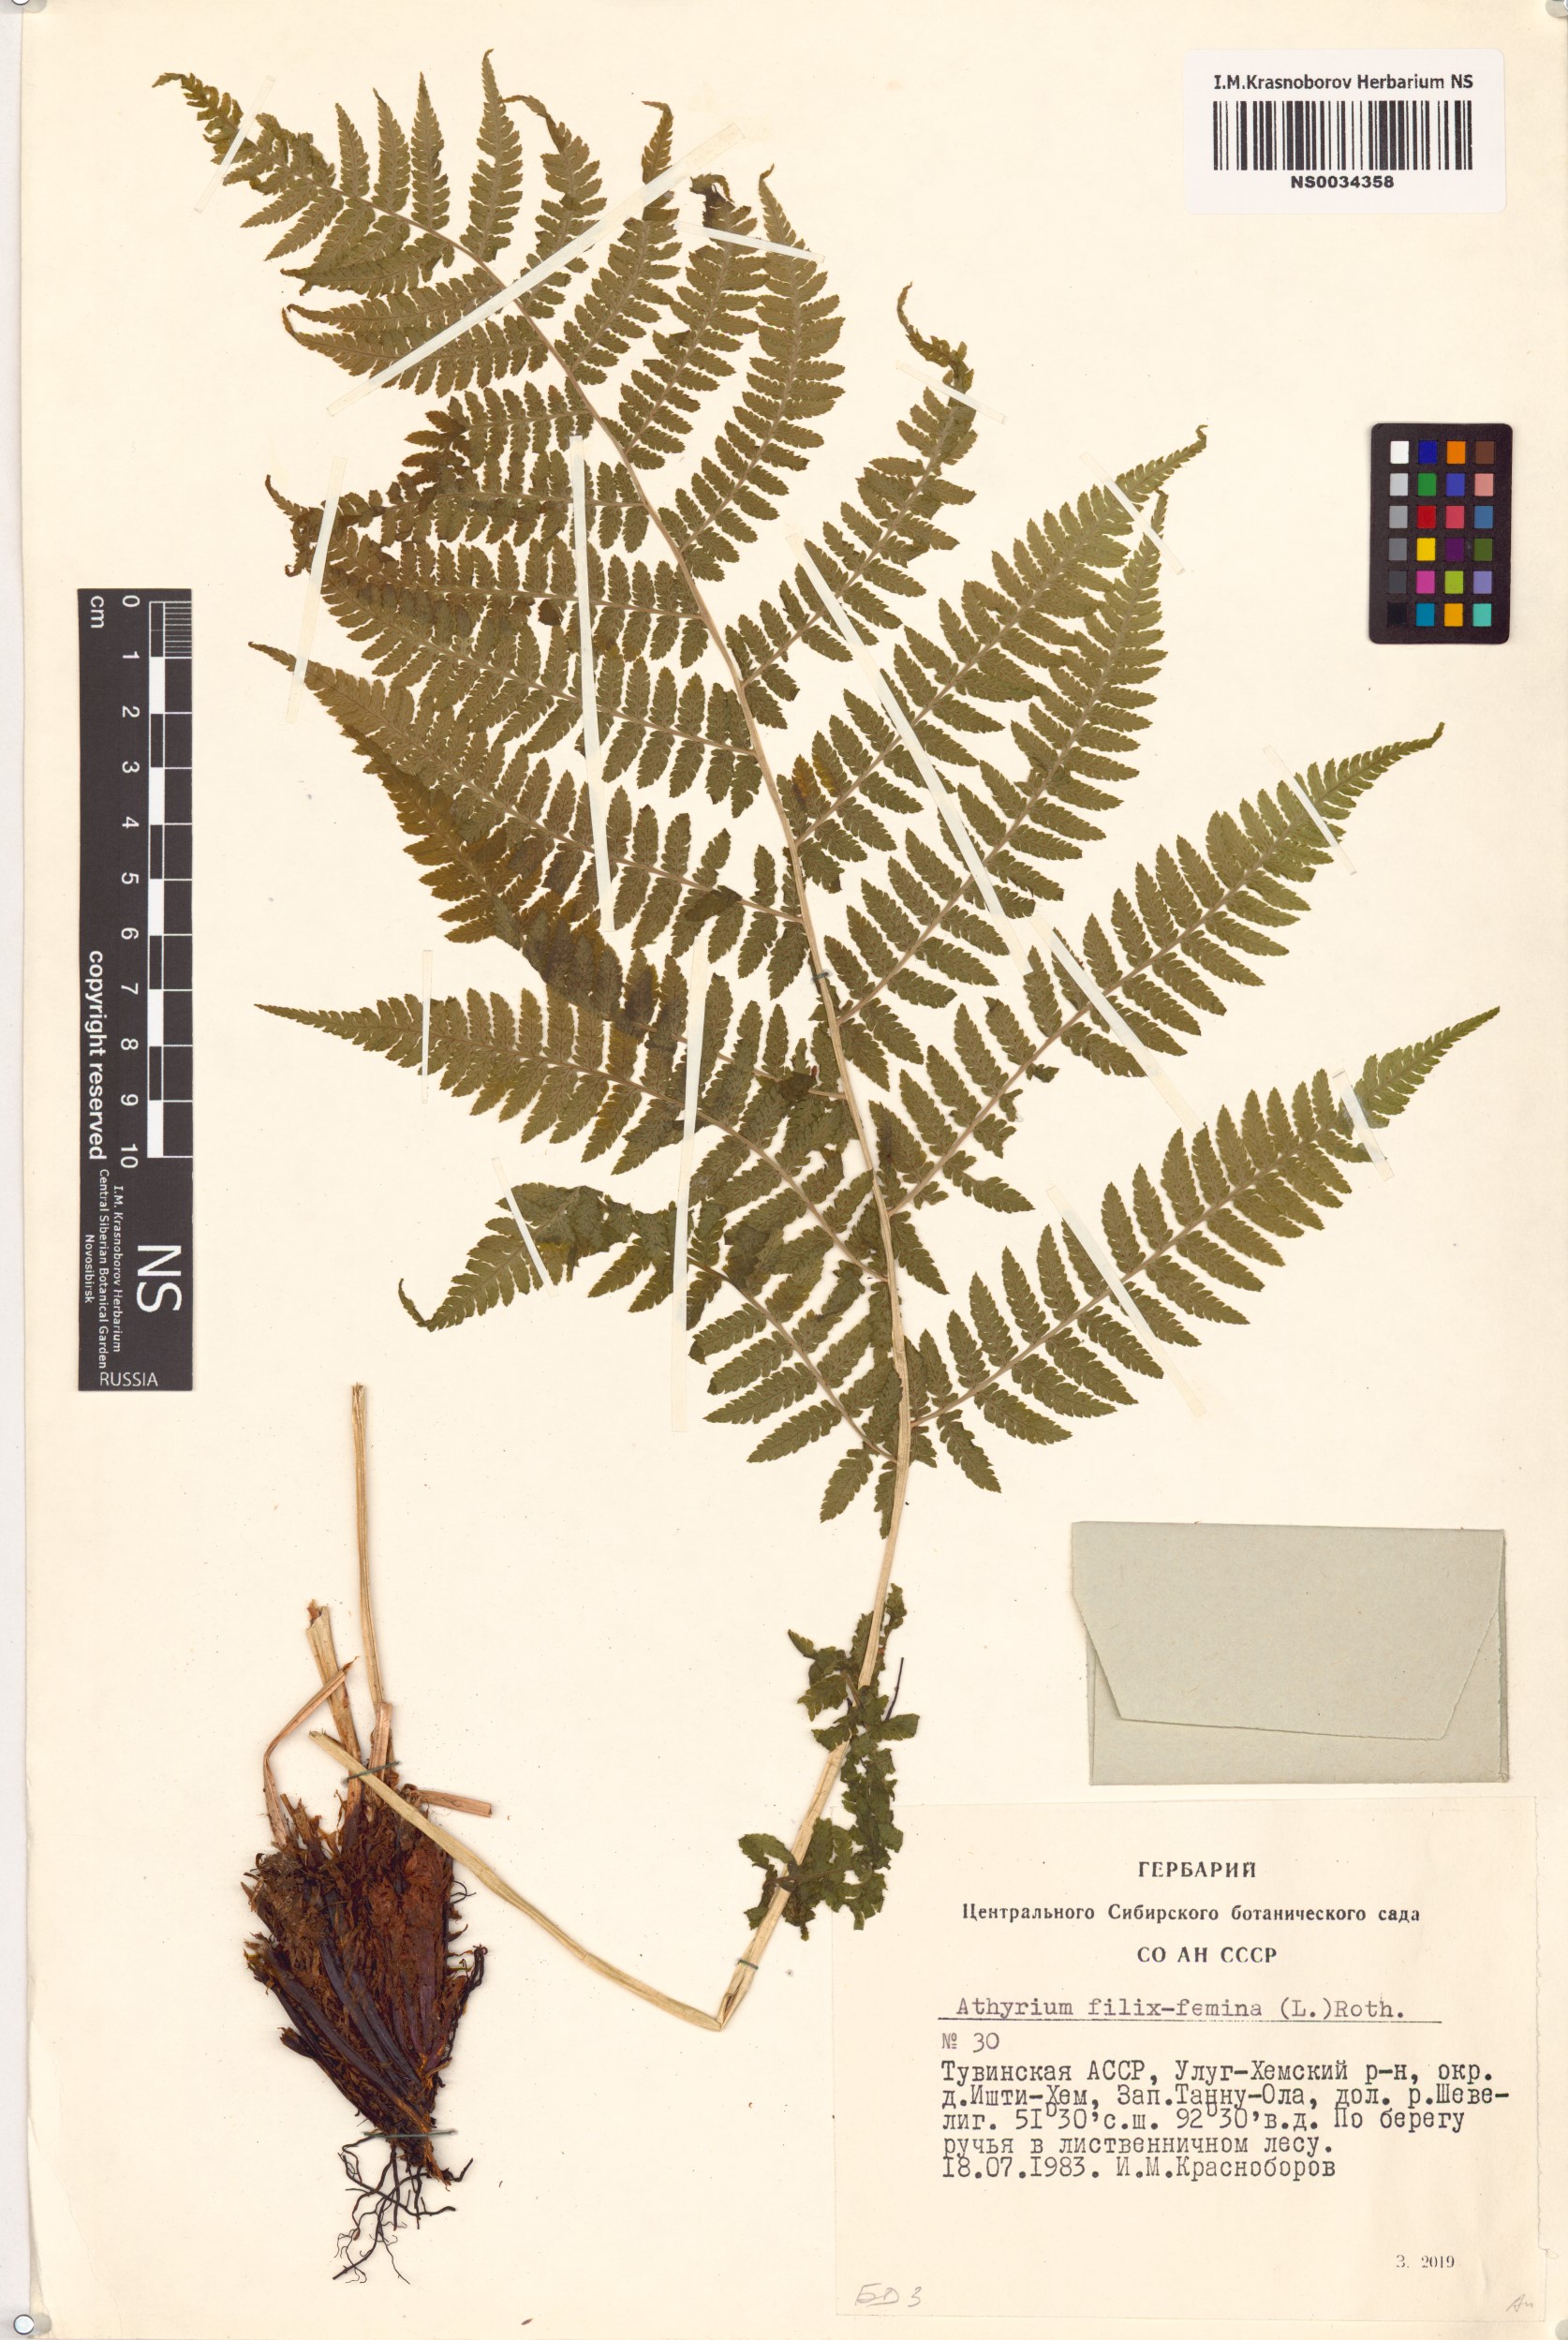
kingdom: Plantae
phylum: Tracheophyta
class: Polypodiopsida
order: Polypodiales
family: Athyriaceae
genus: Athyrium
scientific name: Athyrium filix-femina
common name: Lady fern
